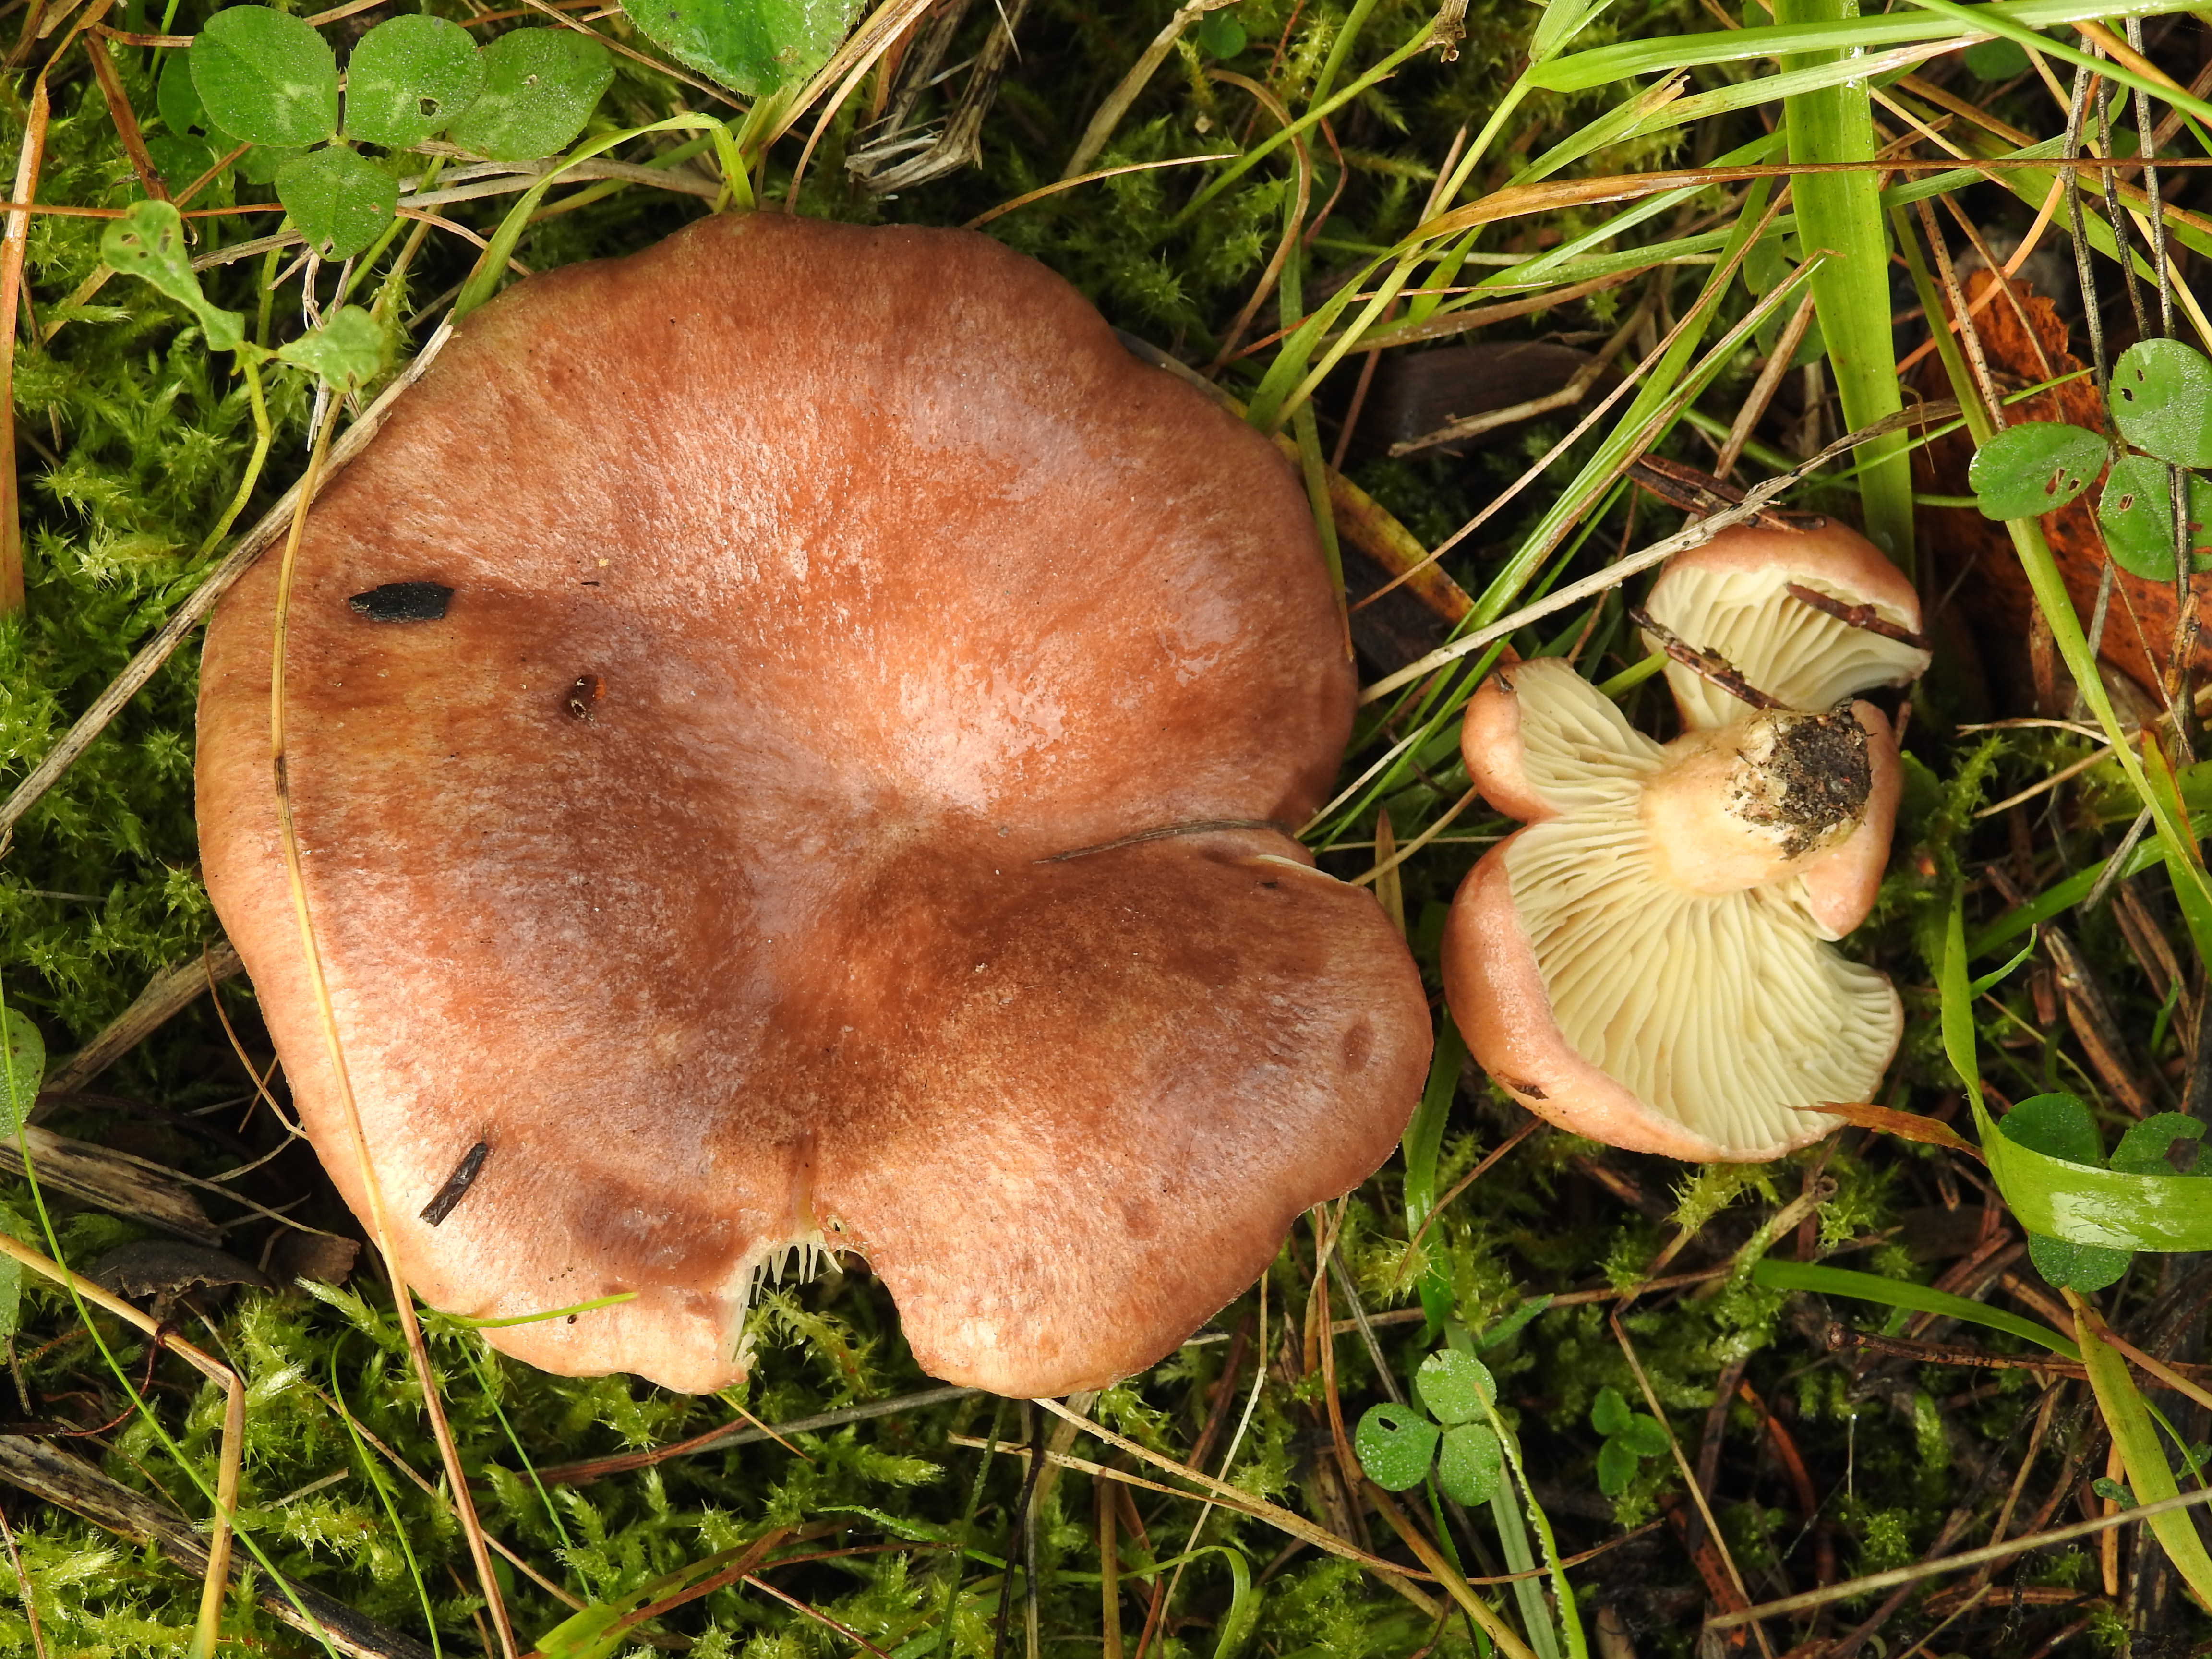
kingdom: Fungi
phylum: Basidiomycota
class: Agaricomycetes
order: Russulales
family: Russulaceae
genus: Lactarius
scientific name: Lactarius hysginus
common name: Dyed milkcap
